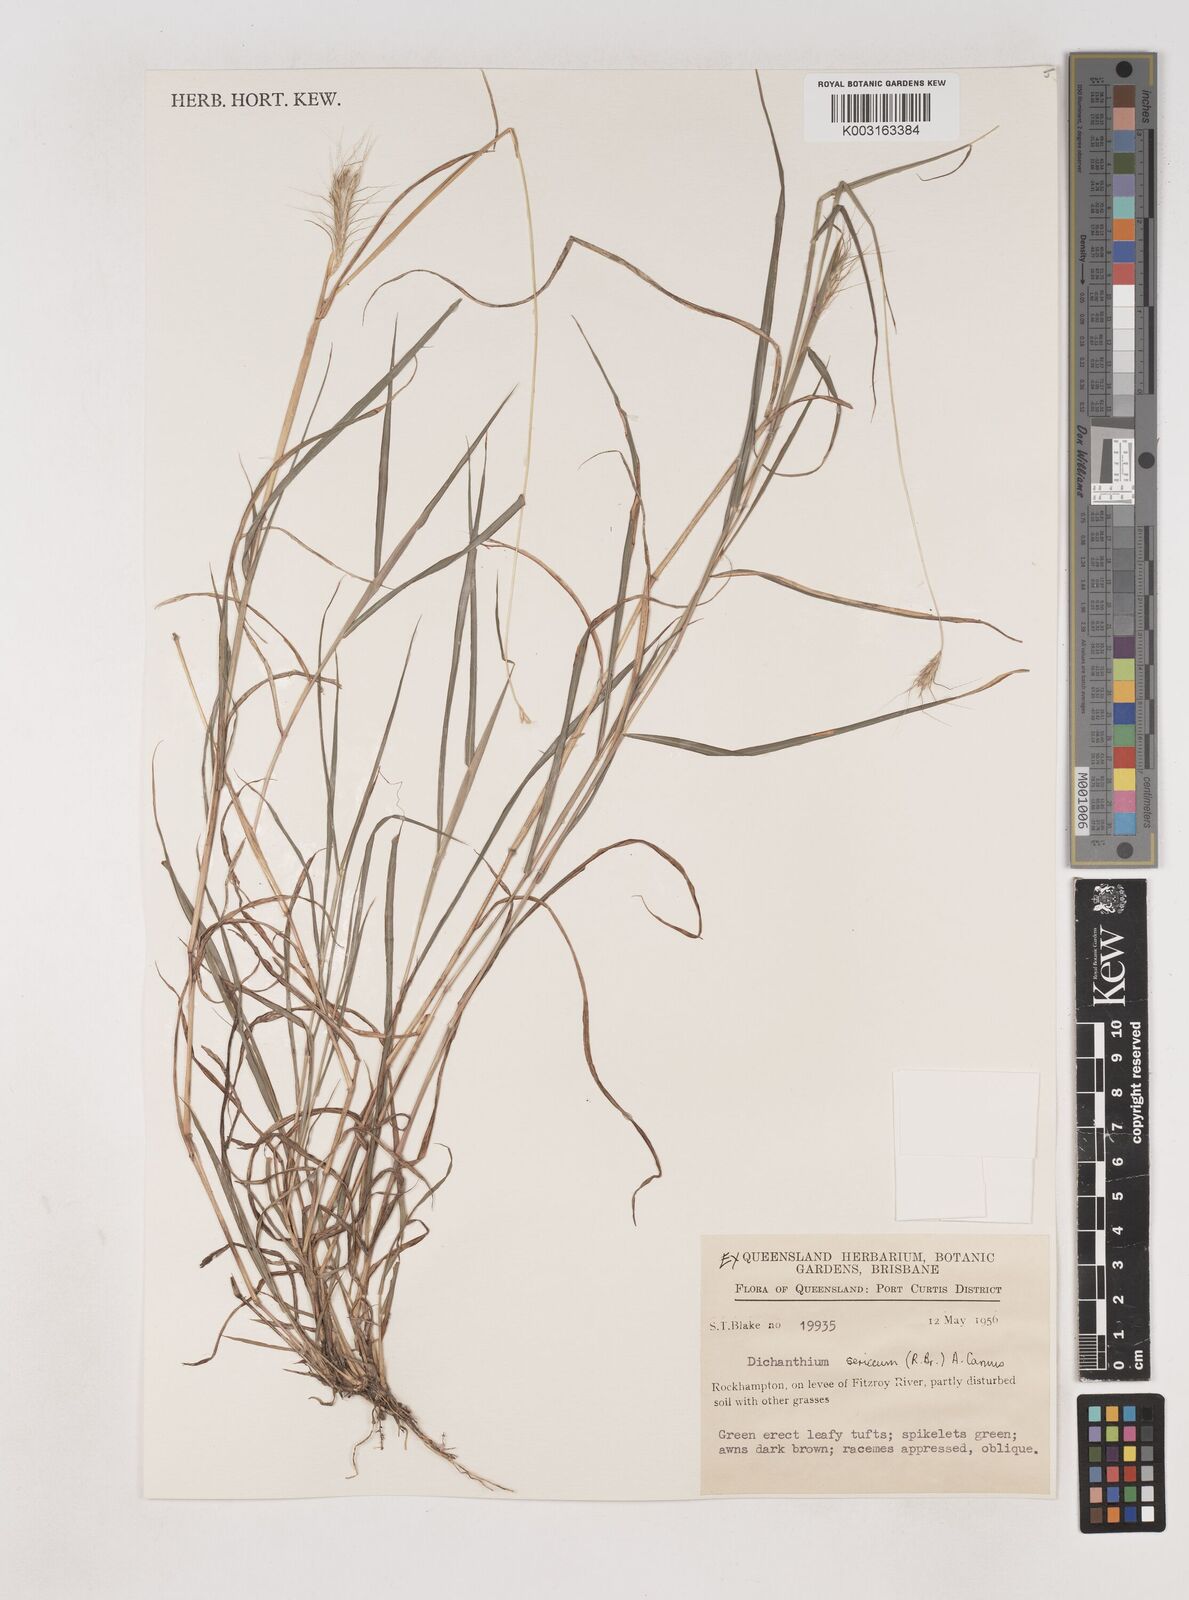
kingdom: Plantae
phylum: Tracheophyta
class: Liliopsida
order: Poales
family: Poaceae
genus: Dichanthium
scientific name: Dichanthium sericeum
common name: Silky bluestem
